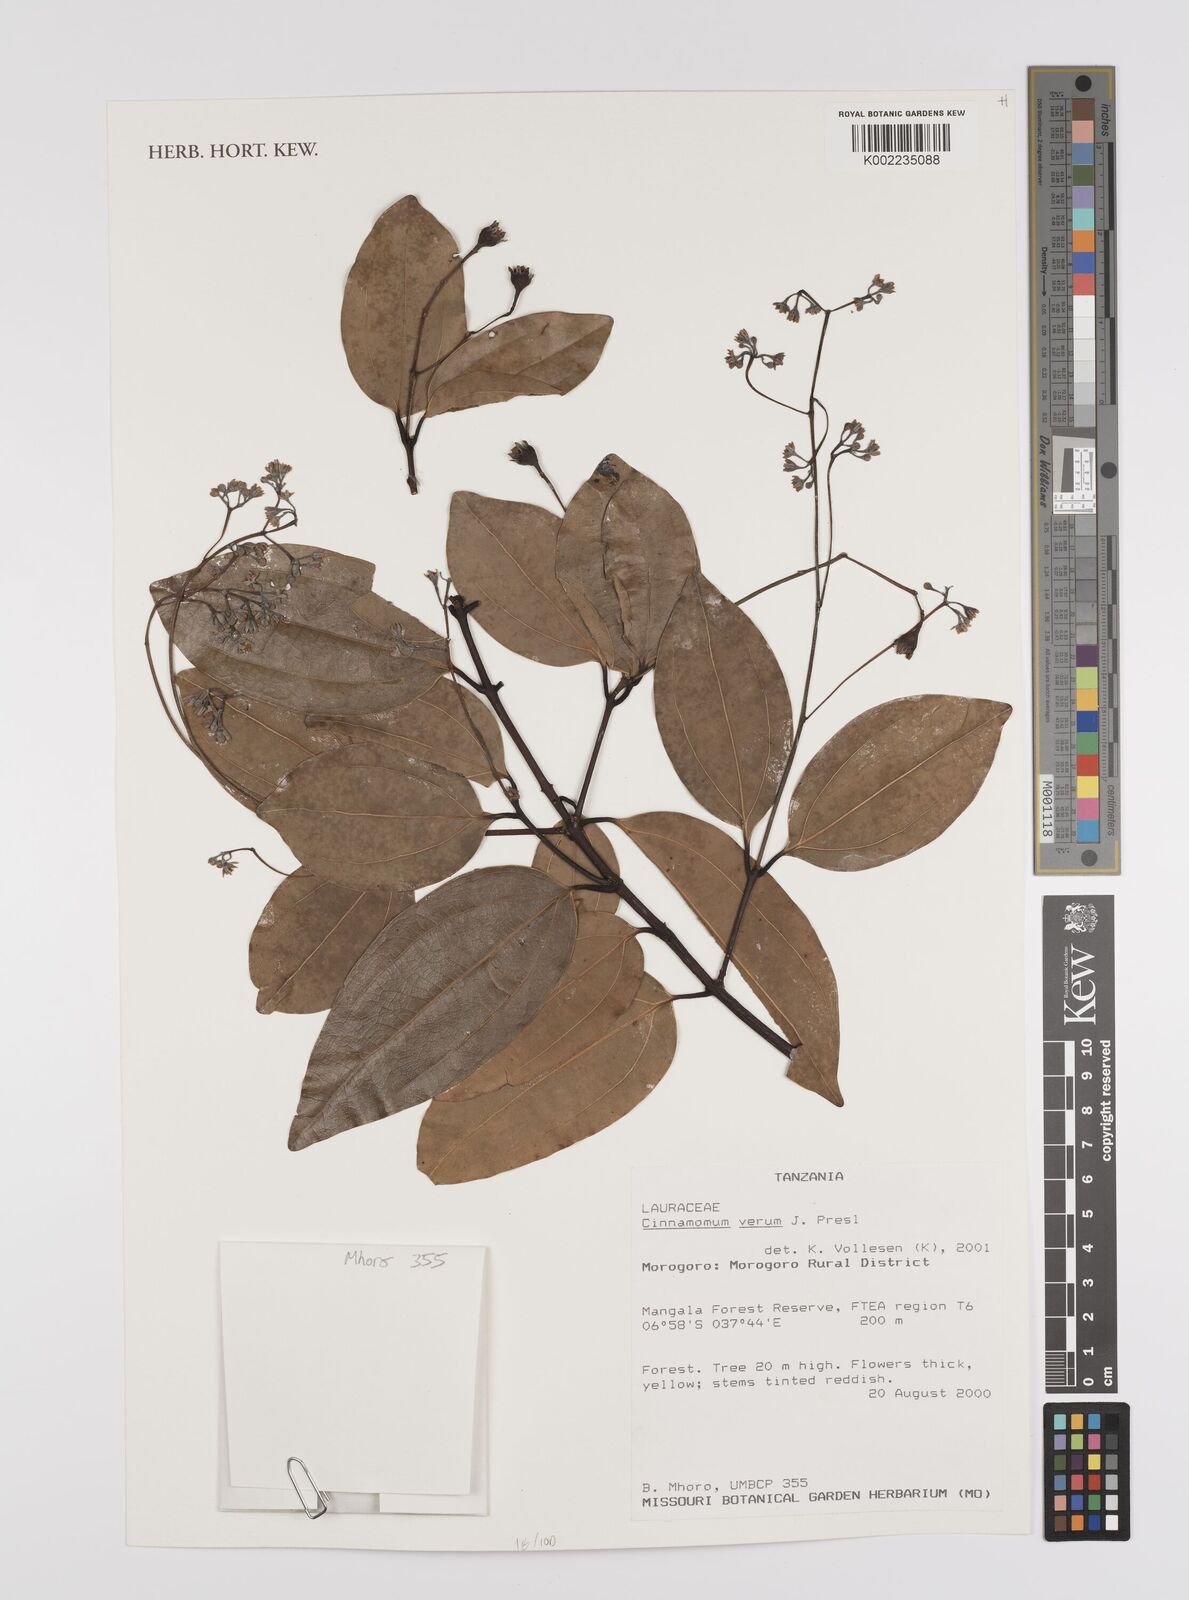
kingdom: Plantae
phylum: Tracheophyta
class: Magnoliopsida
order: Laurales
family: Lauraceae
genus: Cinnamomum
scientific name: Cinnamomum verum
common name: Cinnamon
